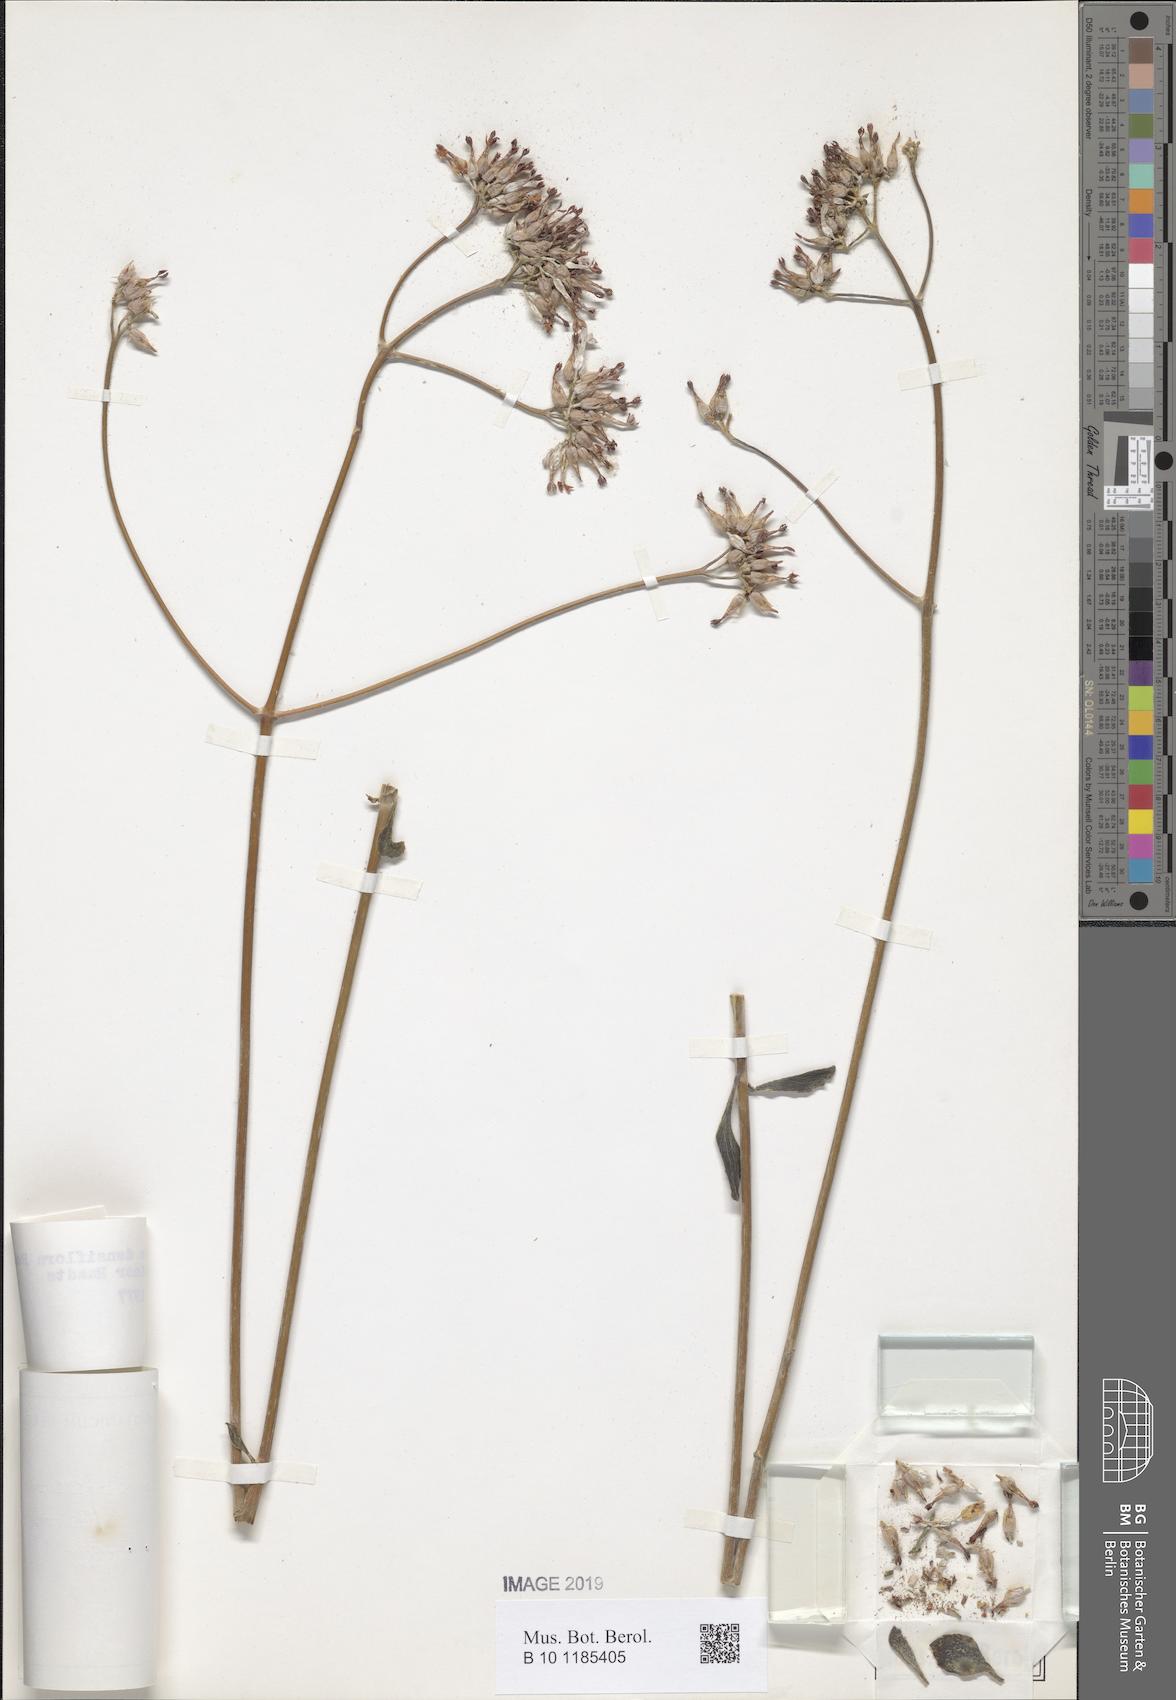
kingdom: Plantae
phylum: Tracheophyta
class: Magnoliopsida
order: Saxifragales
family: Crassulaceae
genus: Kalanchoe
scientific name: Kalanchoe densiflora
